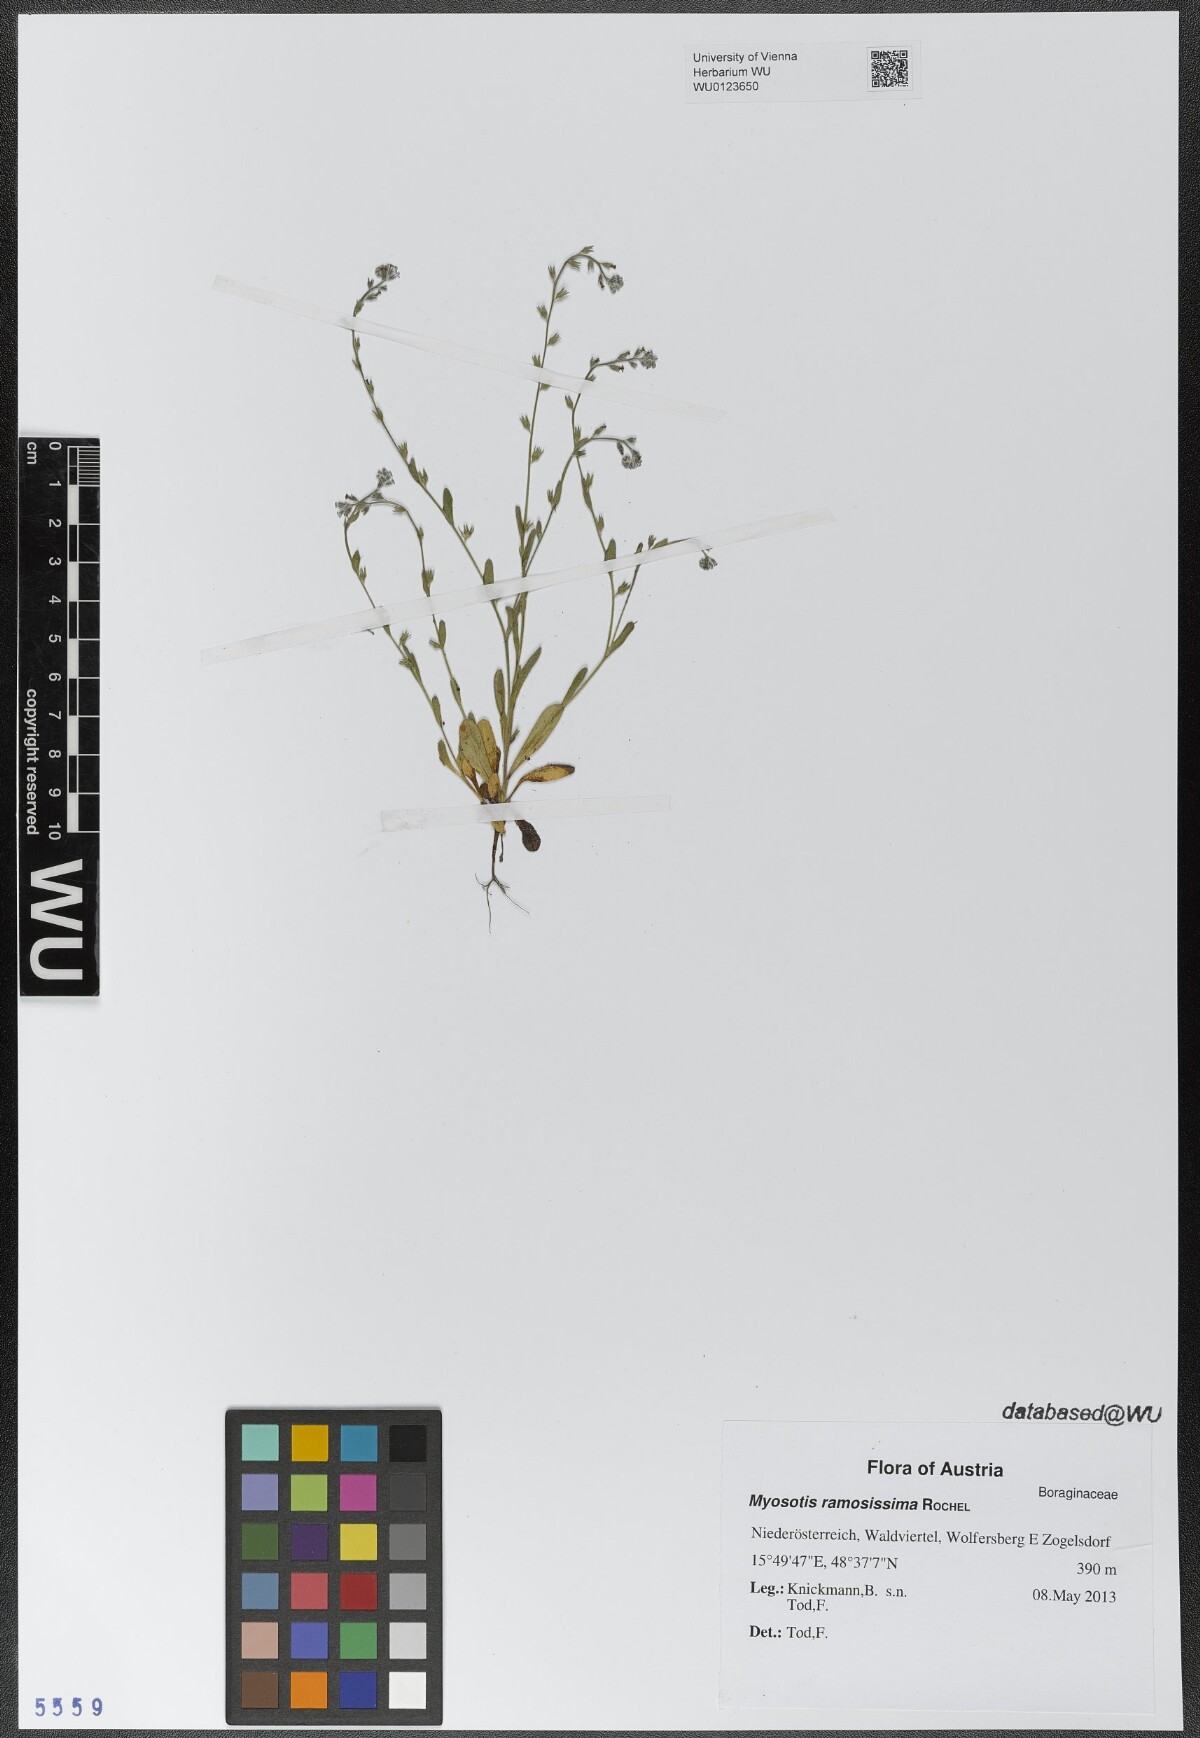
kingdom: Plantae
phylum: Tracheophyta
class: Magnoliopsida
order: Boraginales
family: Boraginaceae
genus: Myosotis
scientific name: Myosotis ramosissima
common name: Early forget-me-not
